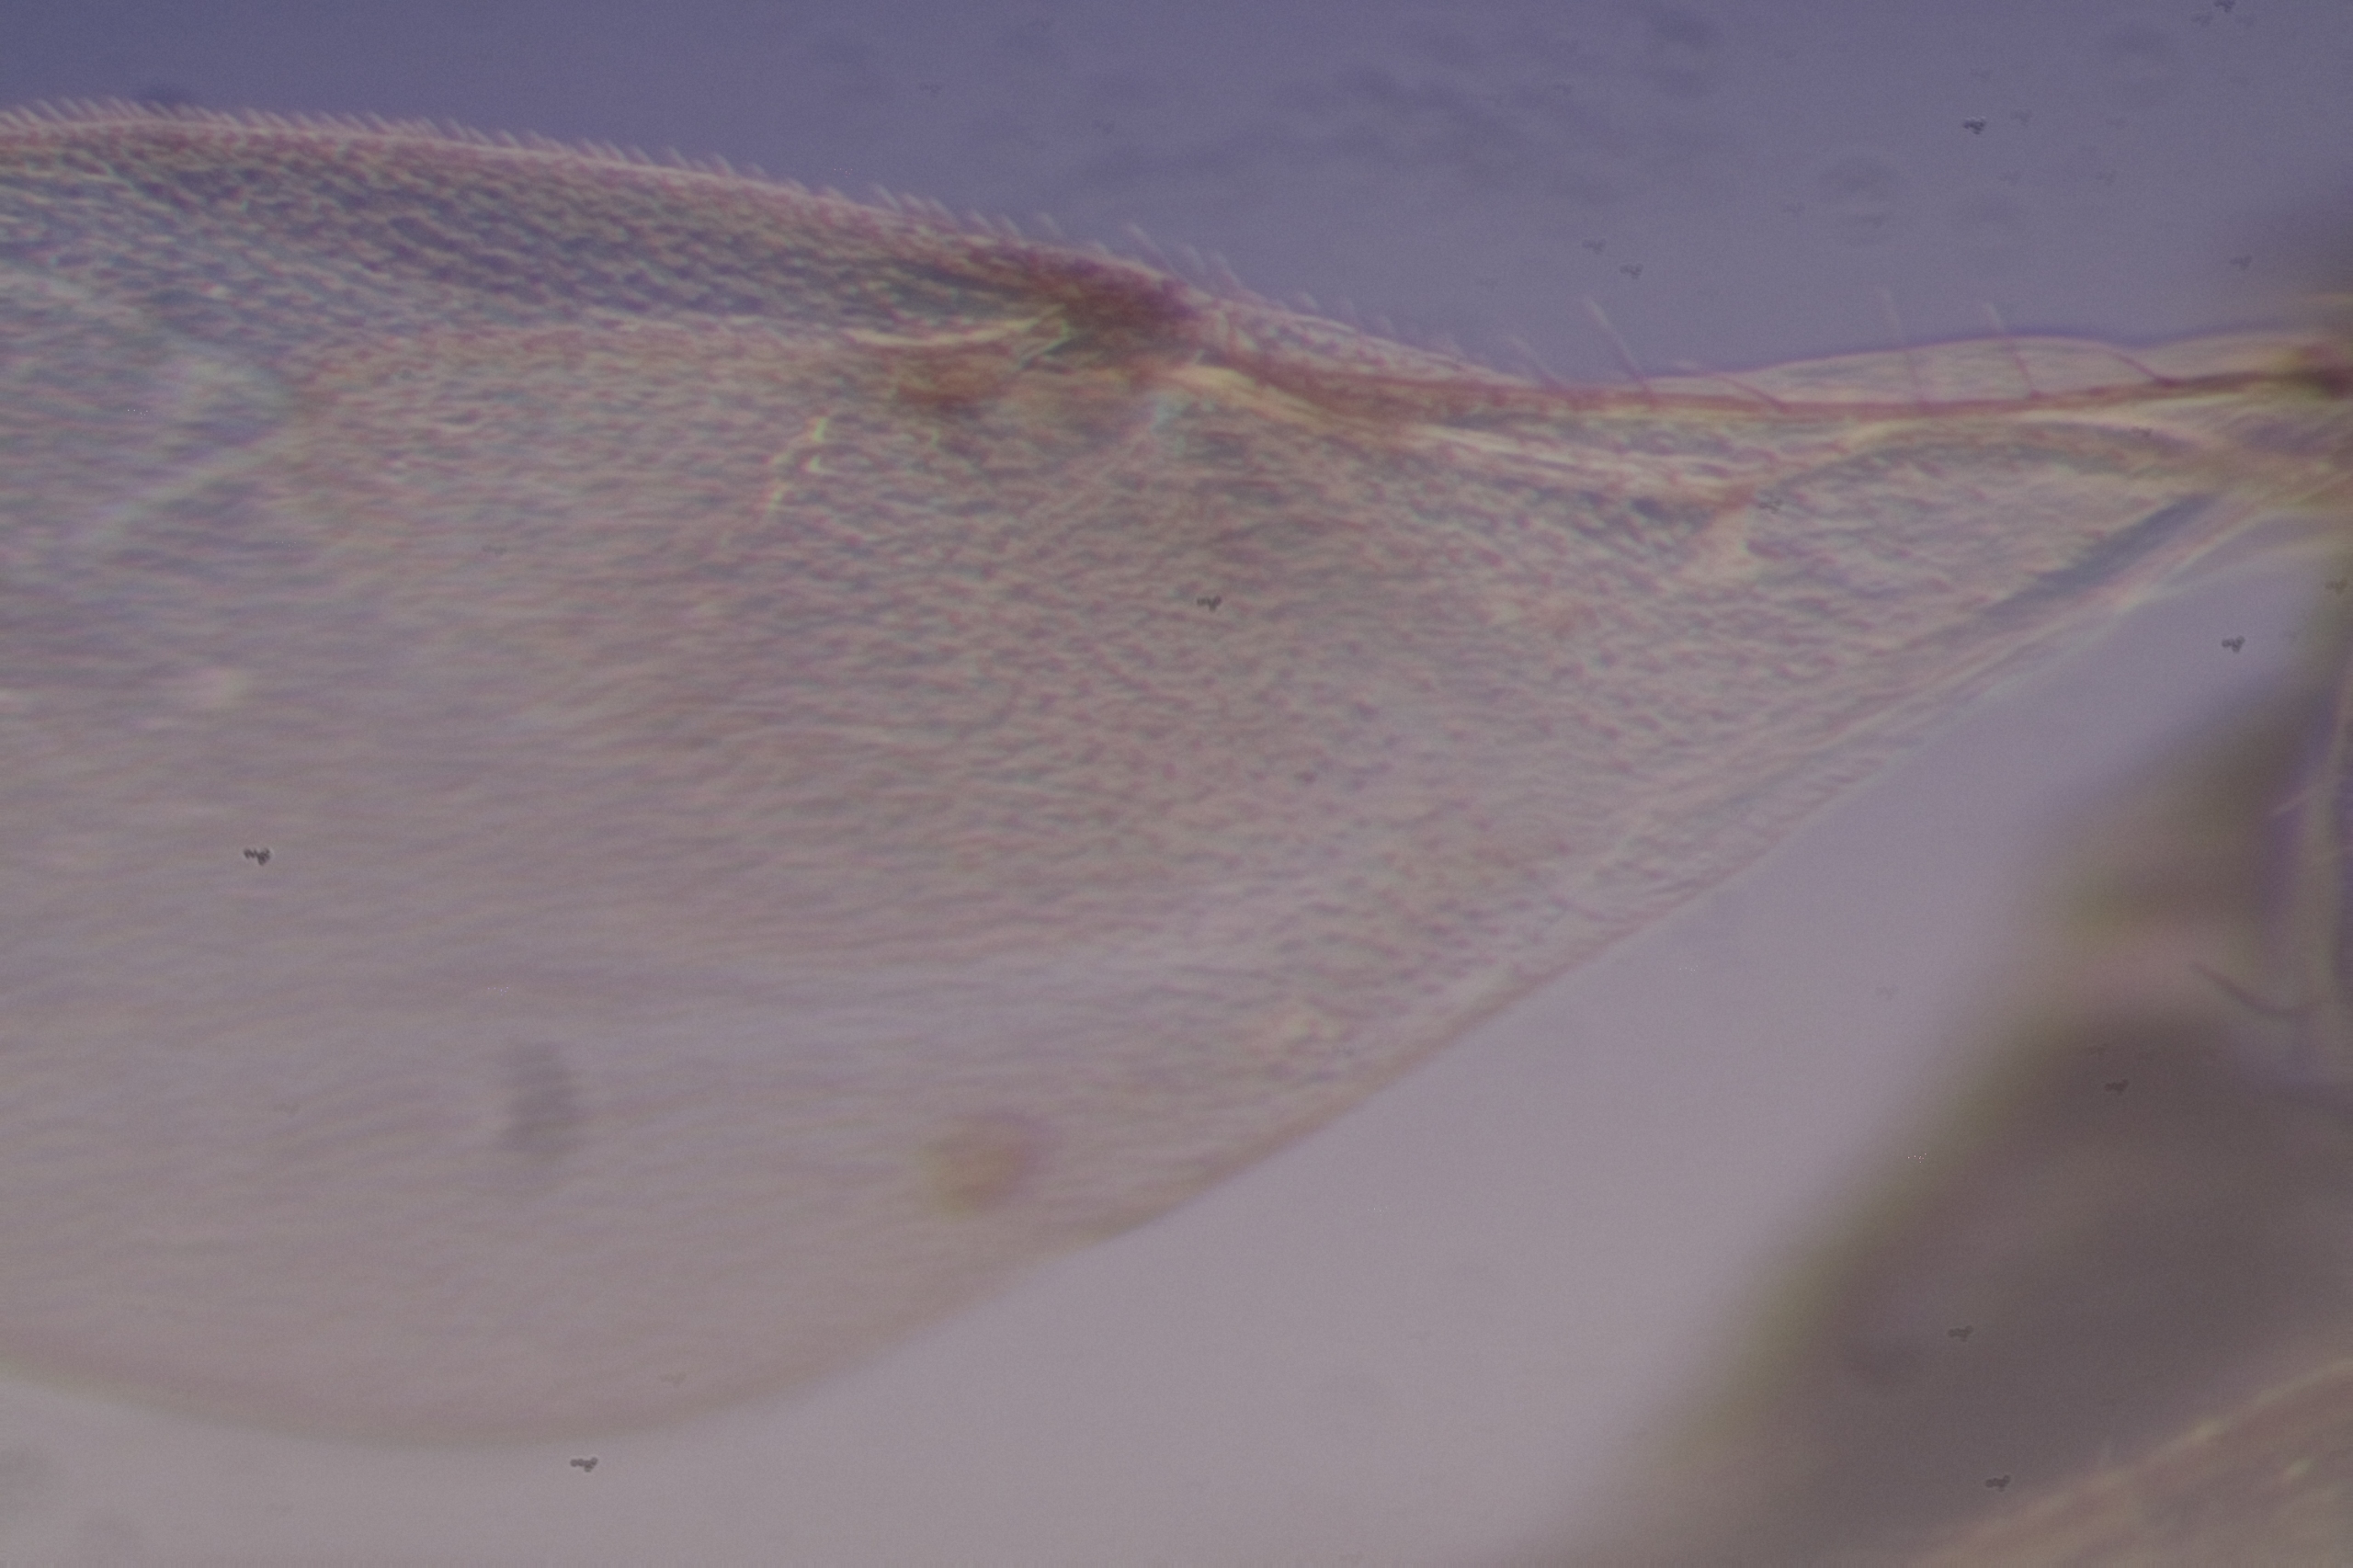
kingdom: Animalia
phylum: Arthropoda
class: Insecta
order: Hymenoptera
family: Encyrtidae
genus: Mayrencyrtus
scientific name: Mayrencyrtus imandes
